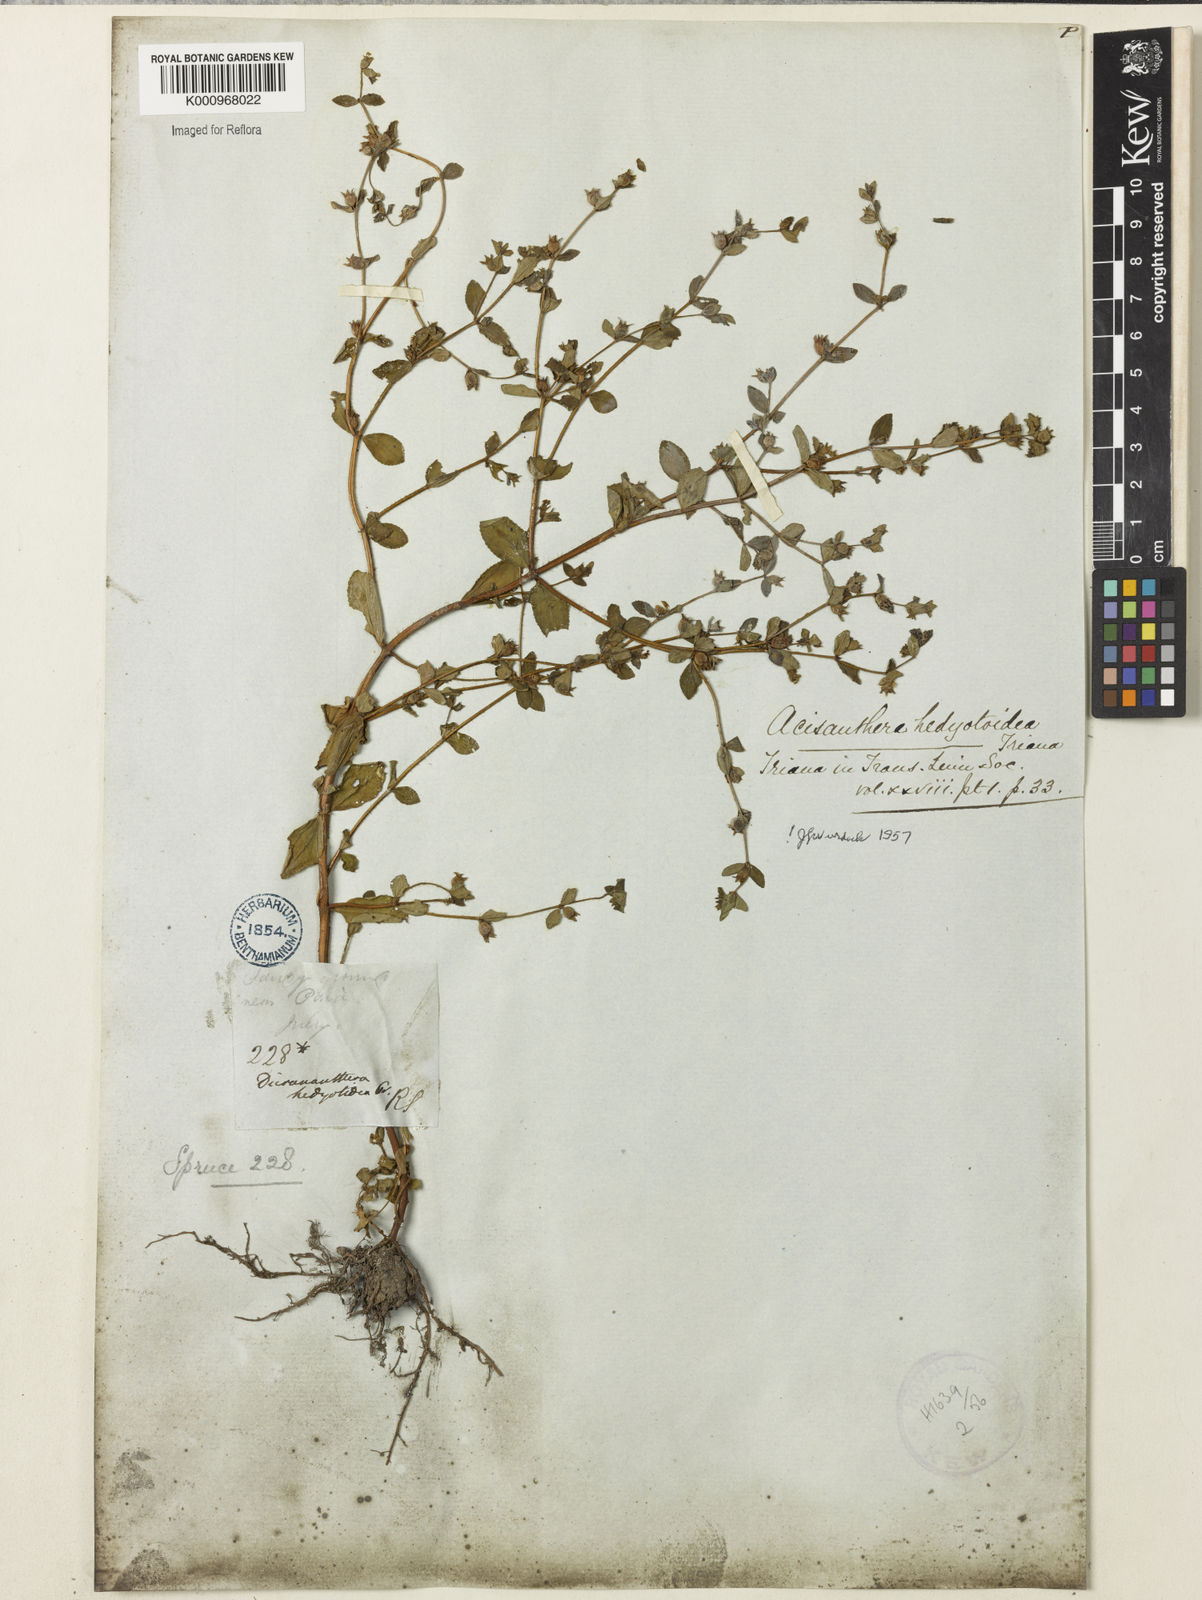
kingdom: Plantae
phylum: Tracheophyta
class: Magnoliopsida
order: Myrtales
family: Melastomataceae
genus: Acisanthera
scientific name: Acisanthera hedyotoidea
